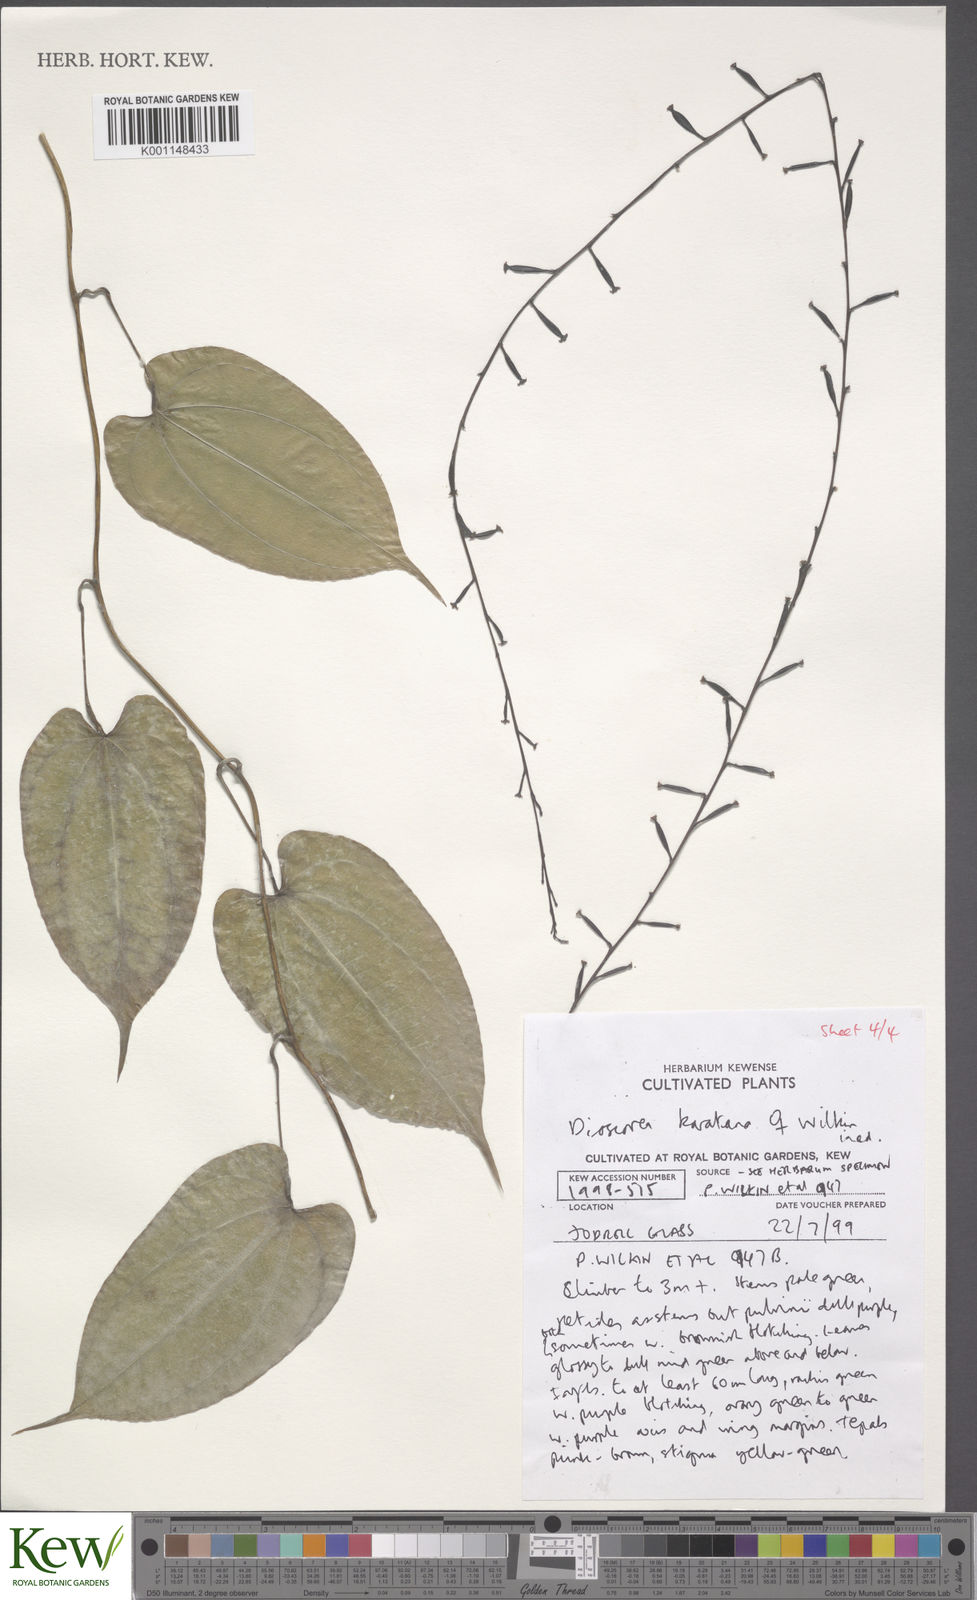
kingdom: Plantae
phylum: Tracheophyta
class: Liliopsida
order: Dioscoreales
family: Dioscoreaceae
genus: Dioscorea
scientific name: Dioscorea madecassa
